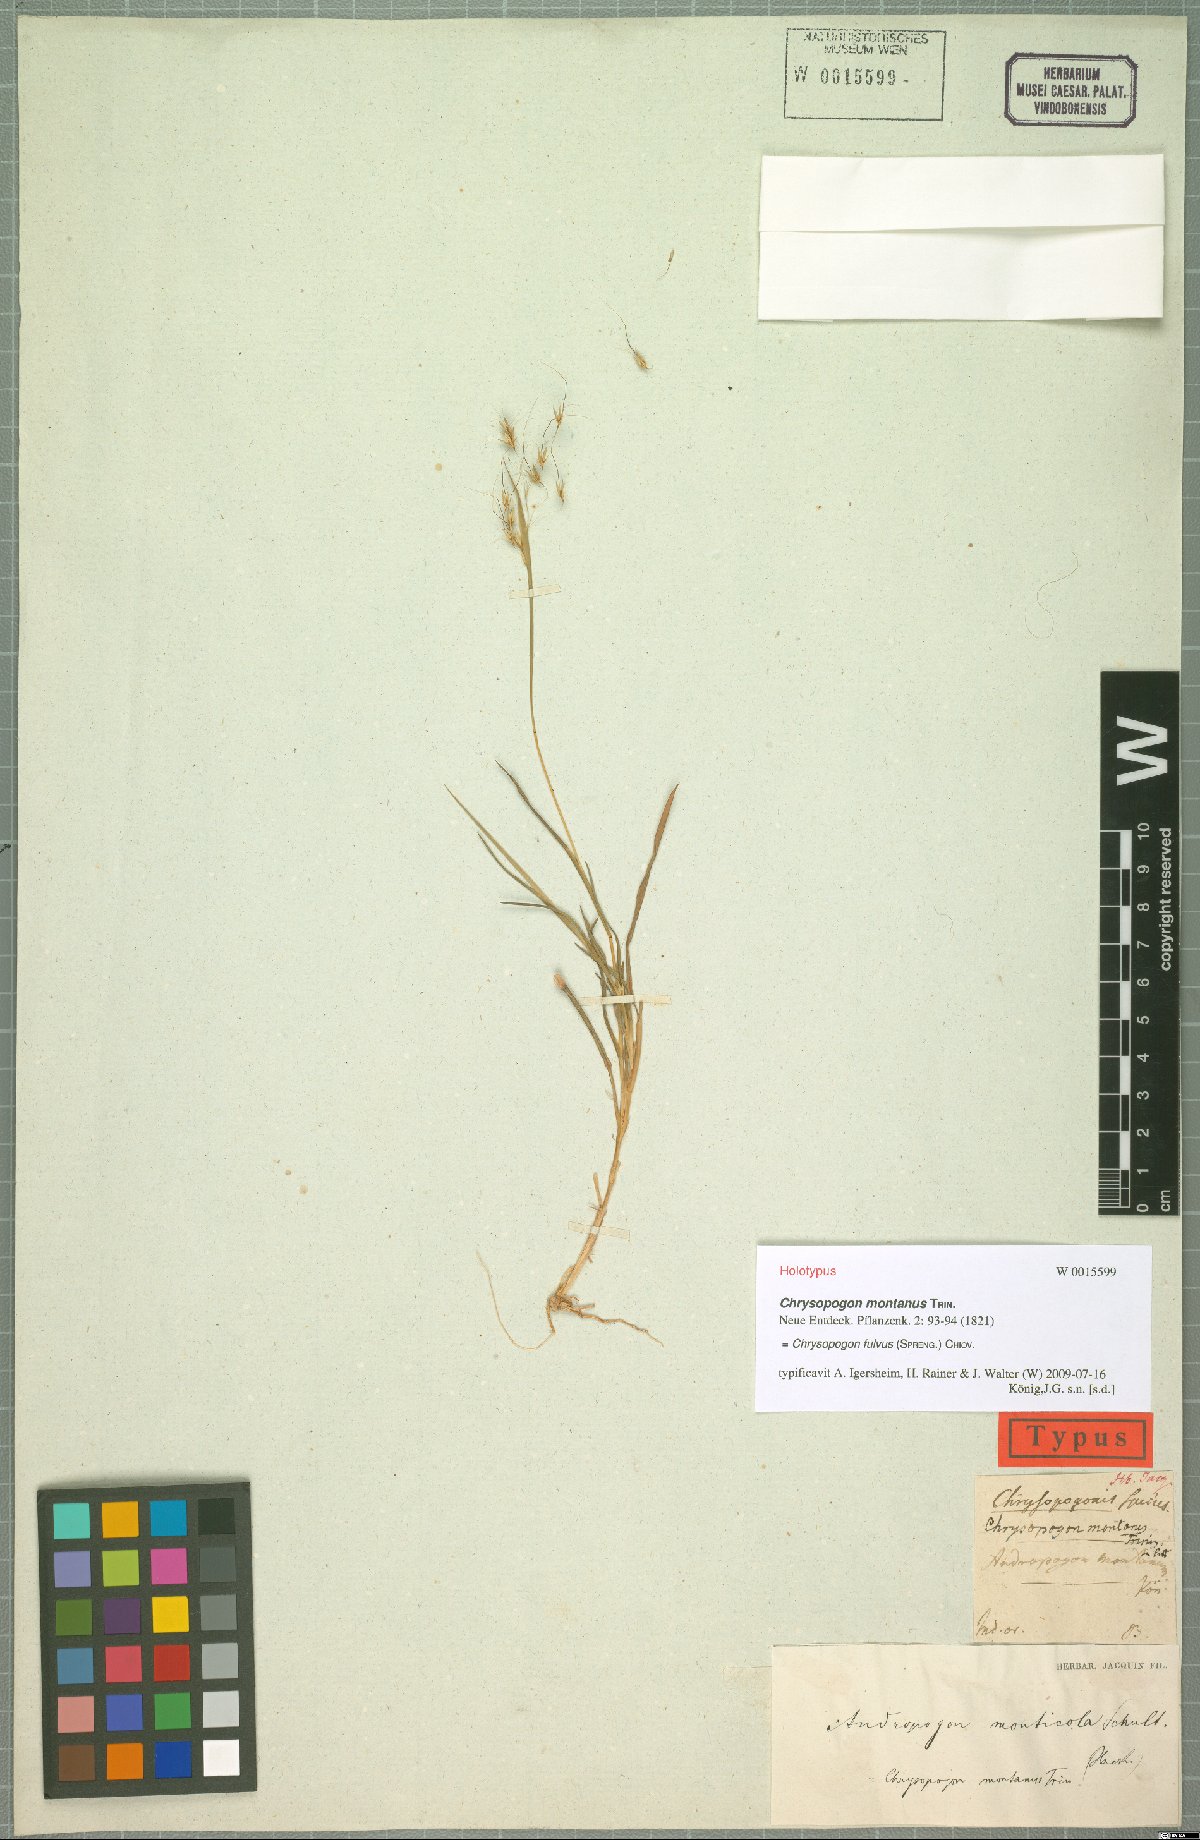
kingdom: Plantae
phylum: Tracheophyta
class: Liliopsida
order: Poales
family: Poaceae
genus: Chrysopogon
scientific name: Chrysopogon fulvus
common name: Red false beardgrass
